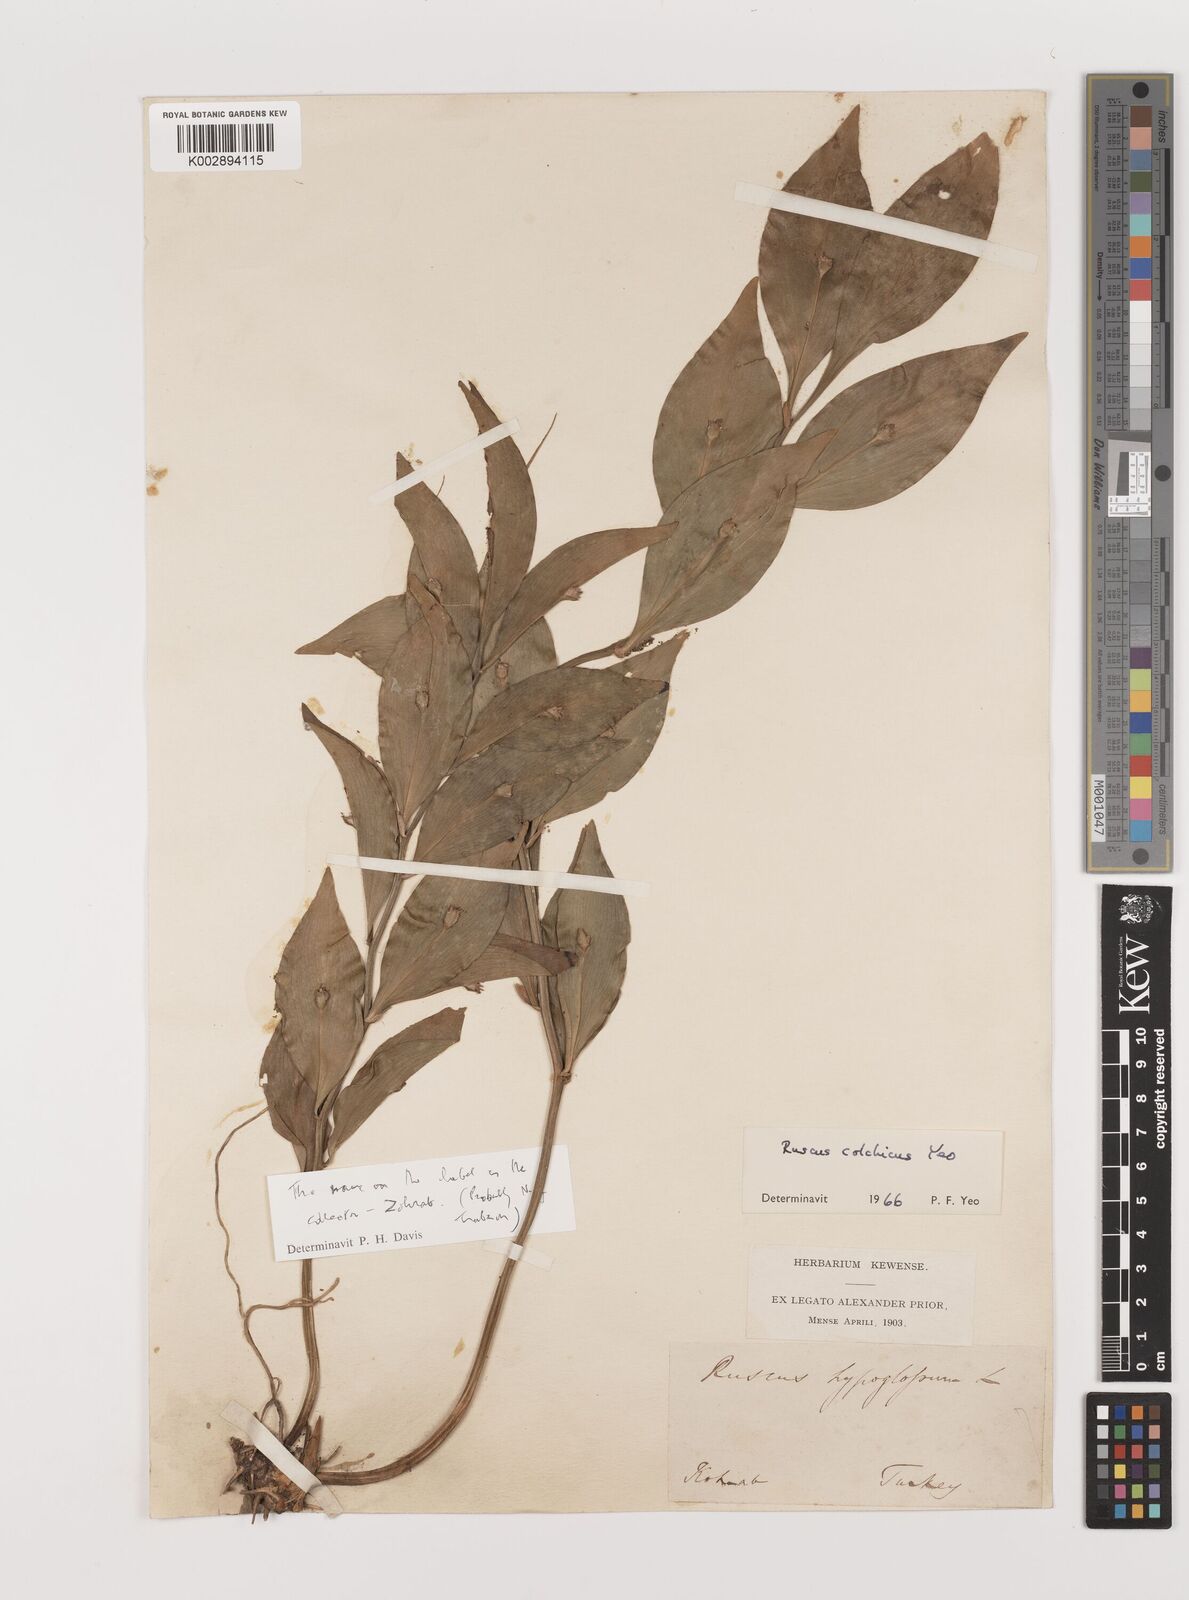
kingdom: Plantae
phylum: Tracheophyta
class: Liliopsida
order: Asparagales
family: Asparagaceae
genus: Ruscus
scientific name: Ruscus colchicus
